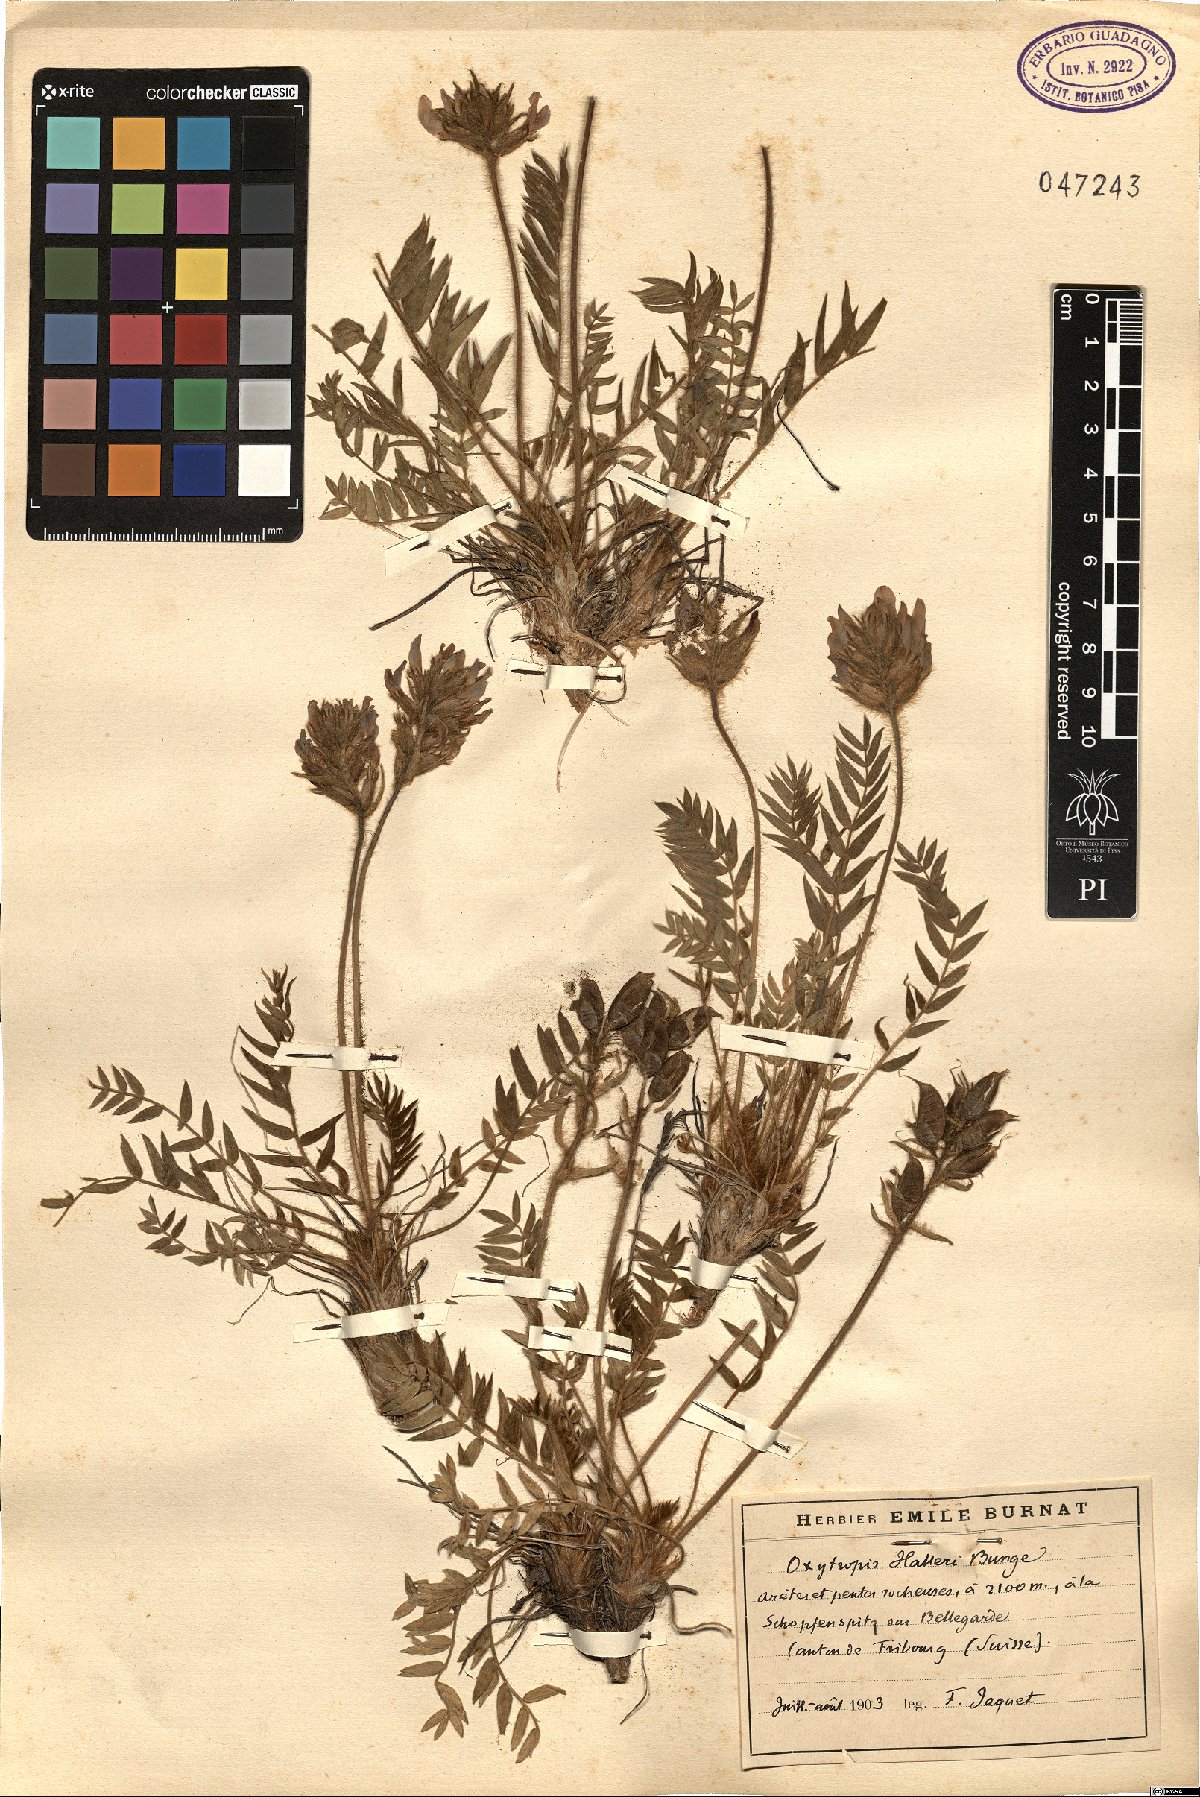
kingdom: Plantae
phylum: Tracheophyta
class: Magnoliopsida
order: Fabales
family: Fabaceae
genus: Oxytropis
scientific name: Oxytropis halleri
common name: Purple oxytropis
